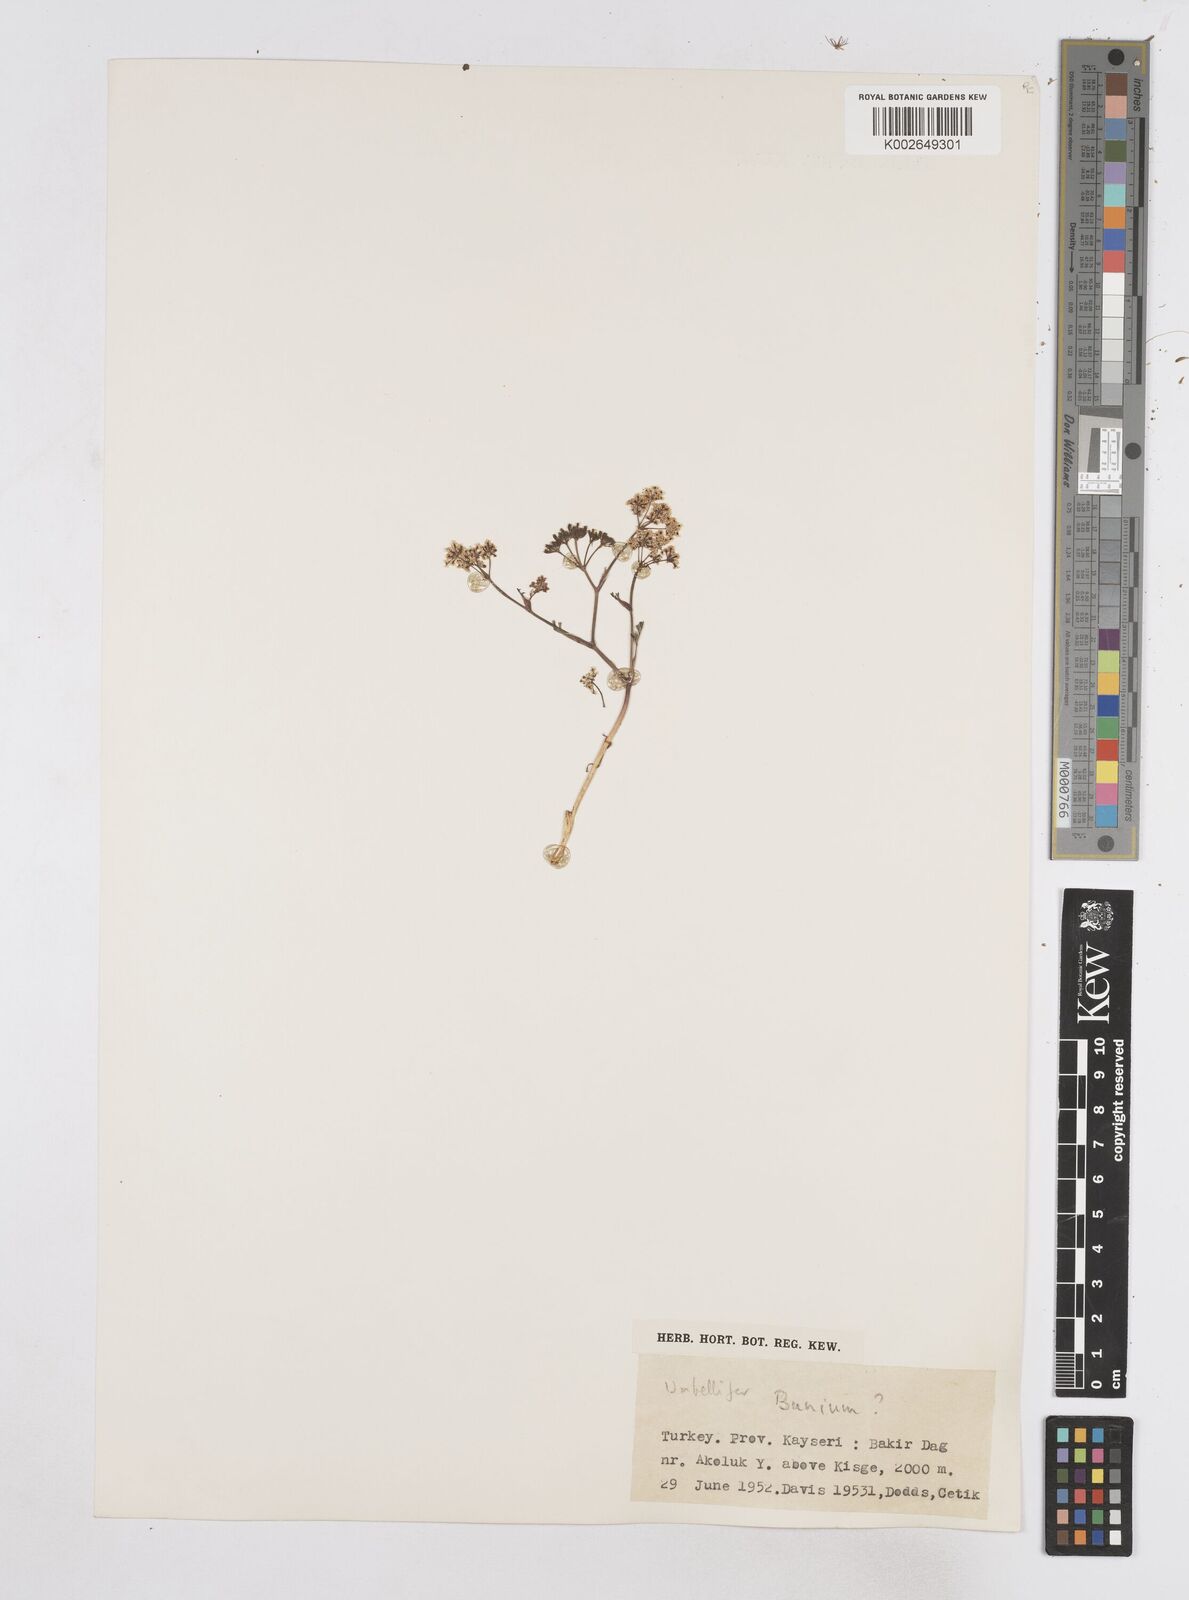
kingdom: Plantae
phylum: Tracheophyta
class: Magnoliopsida
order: Apiales
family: Apiaceae
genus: Bunium
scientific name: Bunium
